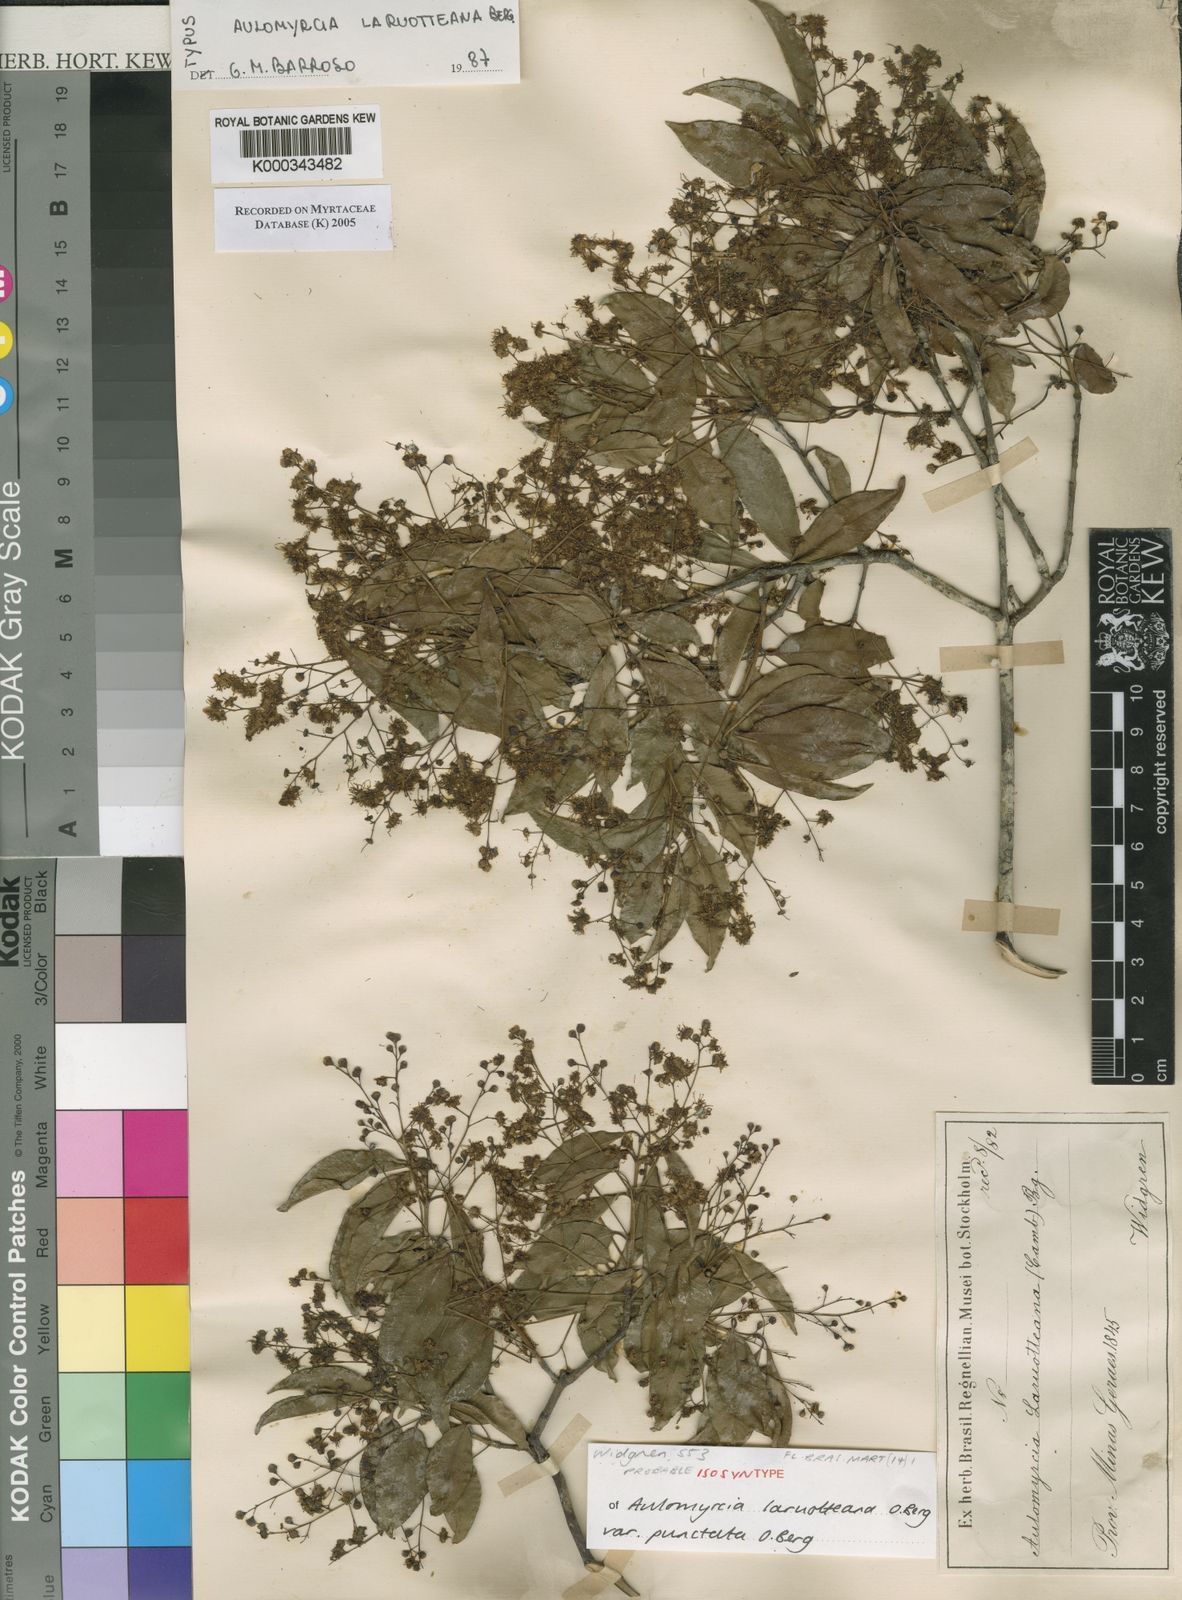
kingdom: Plantae
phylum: Tracheophyta
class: Magnoliopsida
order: Myrtales
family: Myrtaceae
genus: Myrcia
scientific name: Myrcia laruotteana
